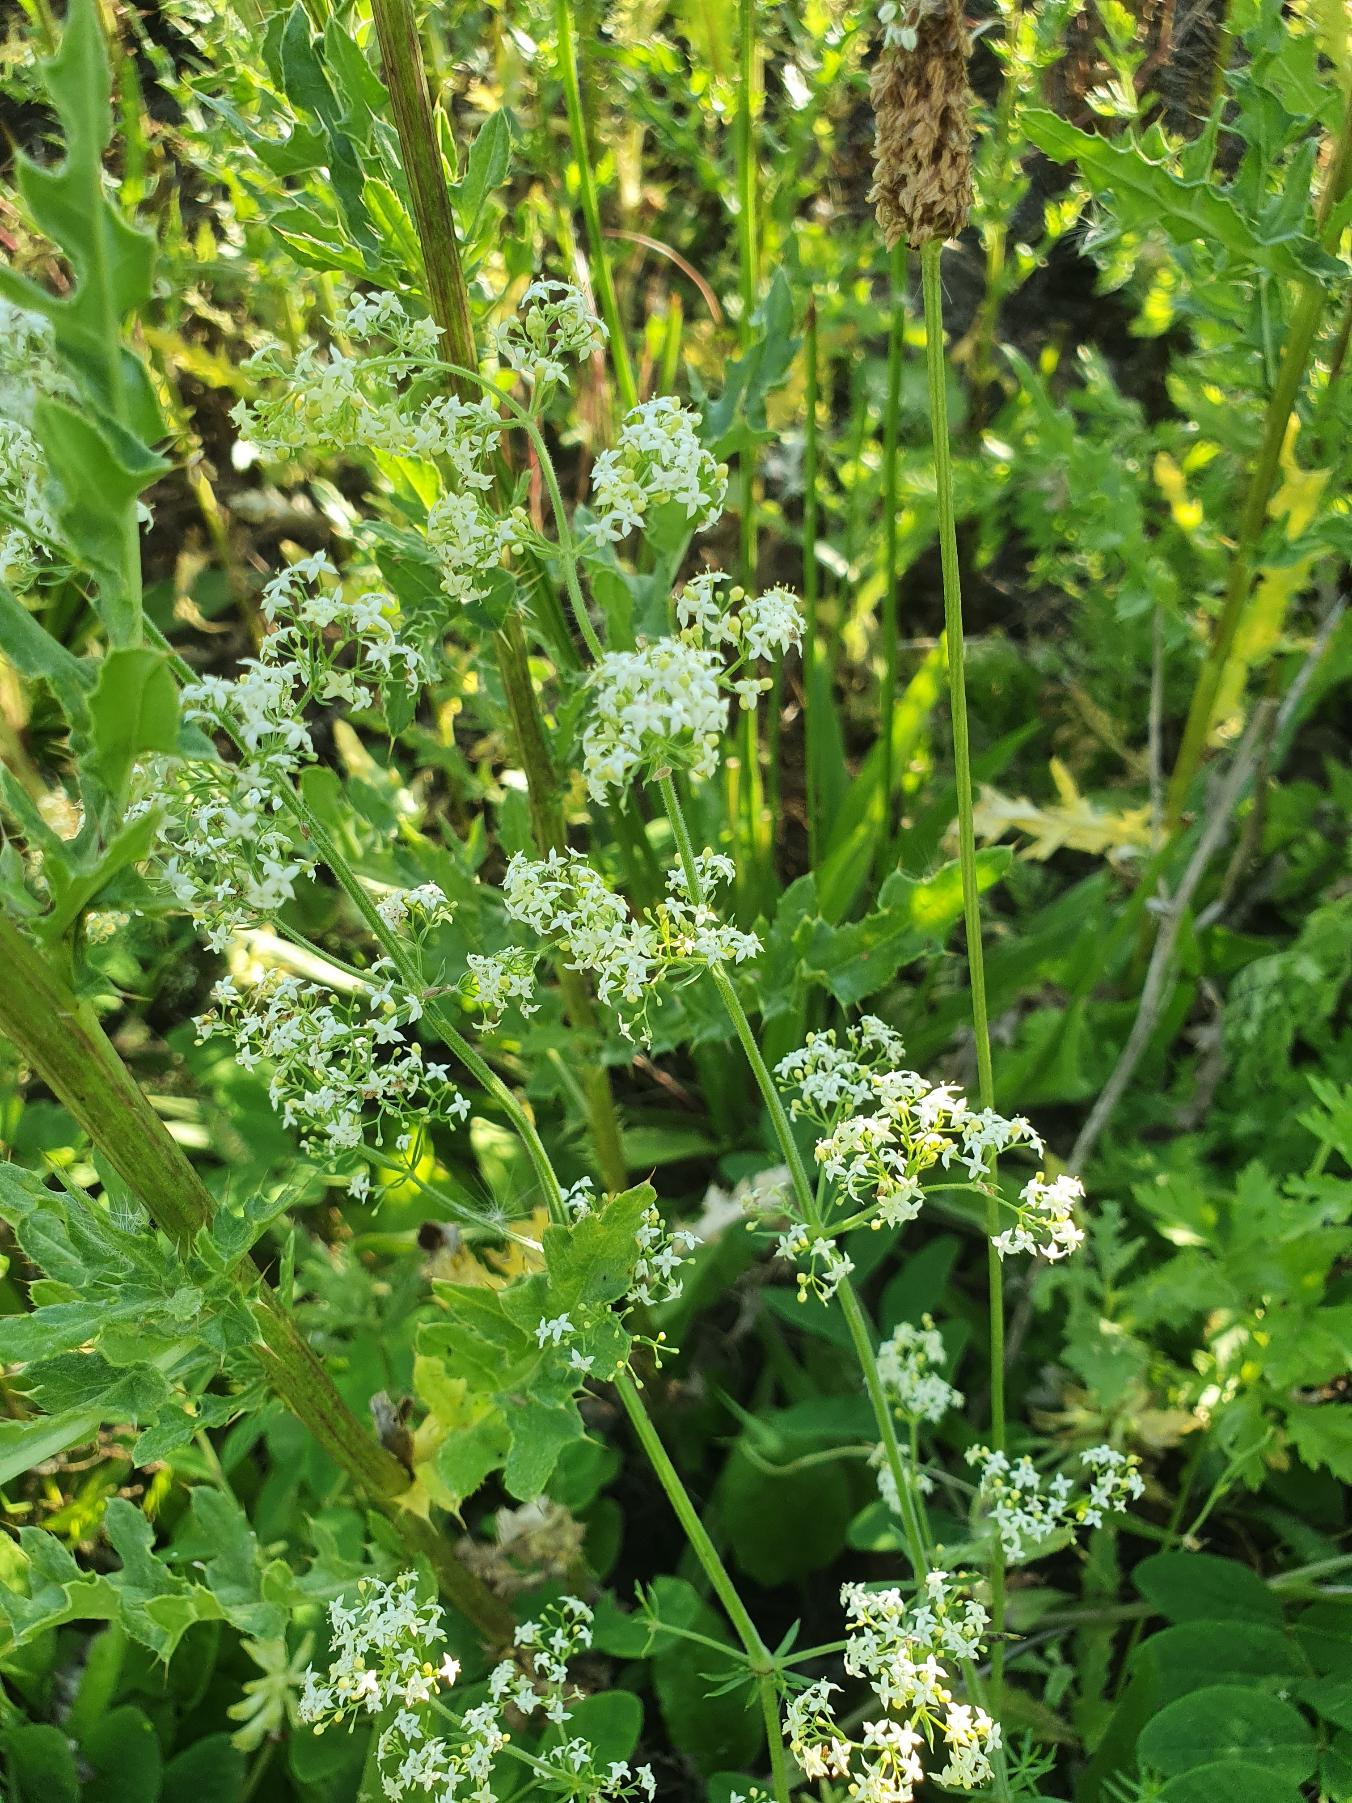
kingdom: Plantae
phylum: Tracheophyta
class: Magnoliopsida
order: Gentianales
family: Rubiaceae
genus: Galium
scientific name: Galium mollugo
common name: Hvid snerre
